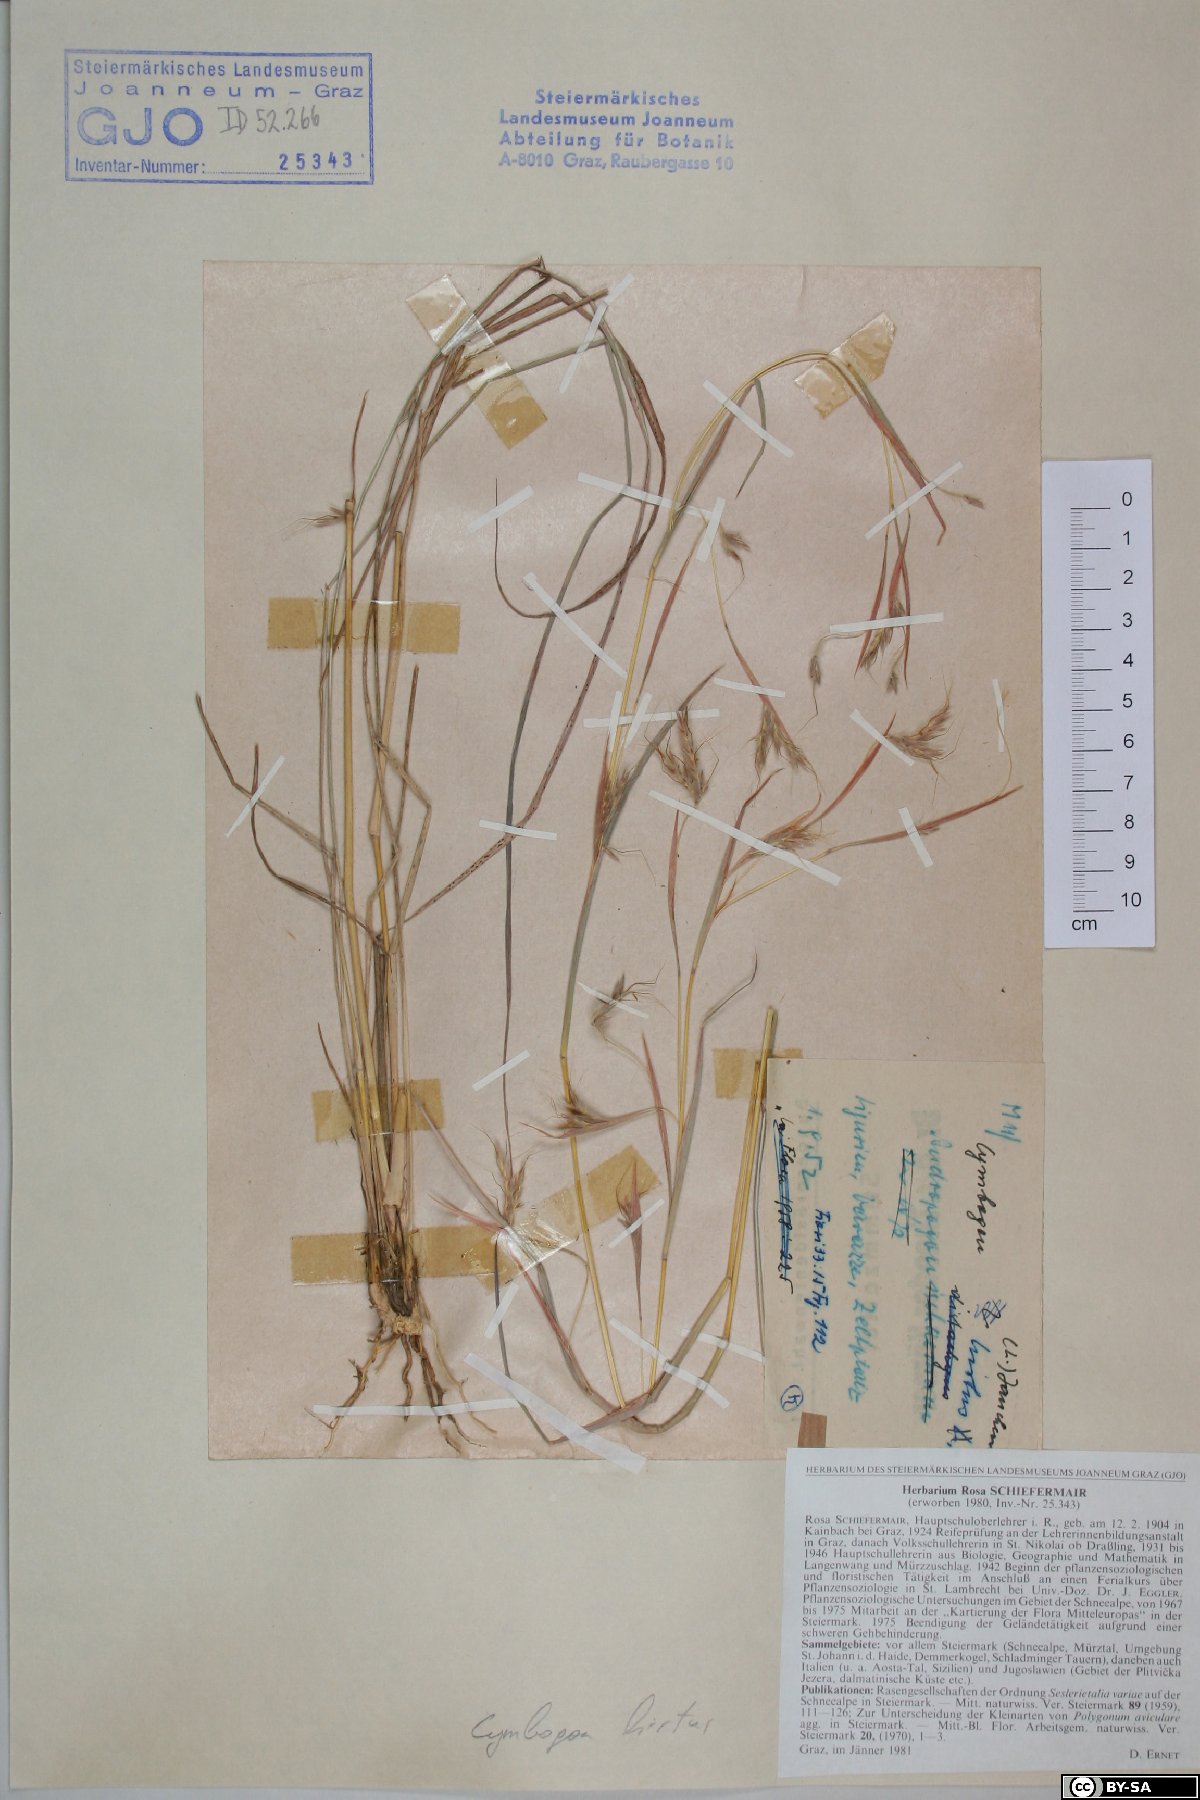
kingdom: Plantae
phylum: Tracheophyta
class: Liliopsida
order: Poales
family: Poaceae
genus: Hyparrhenia
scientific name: Hyparrhenia hirta
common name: Thatching grass
